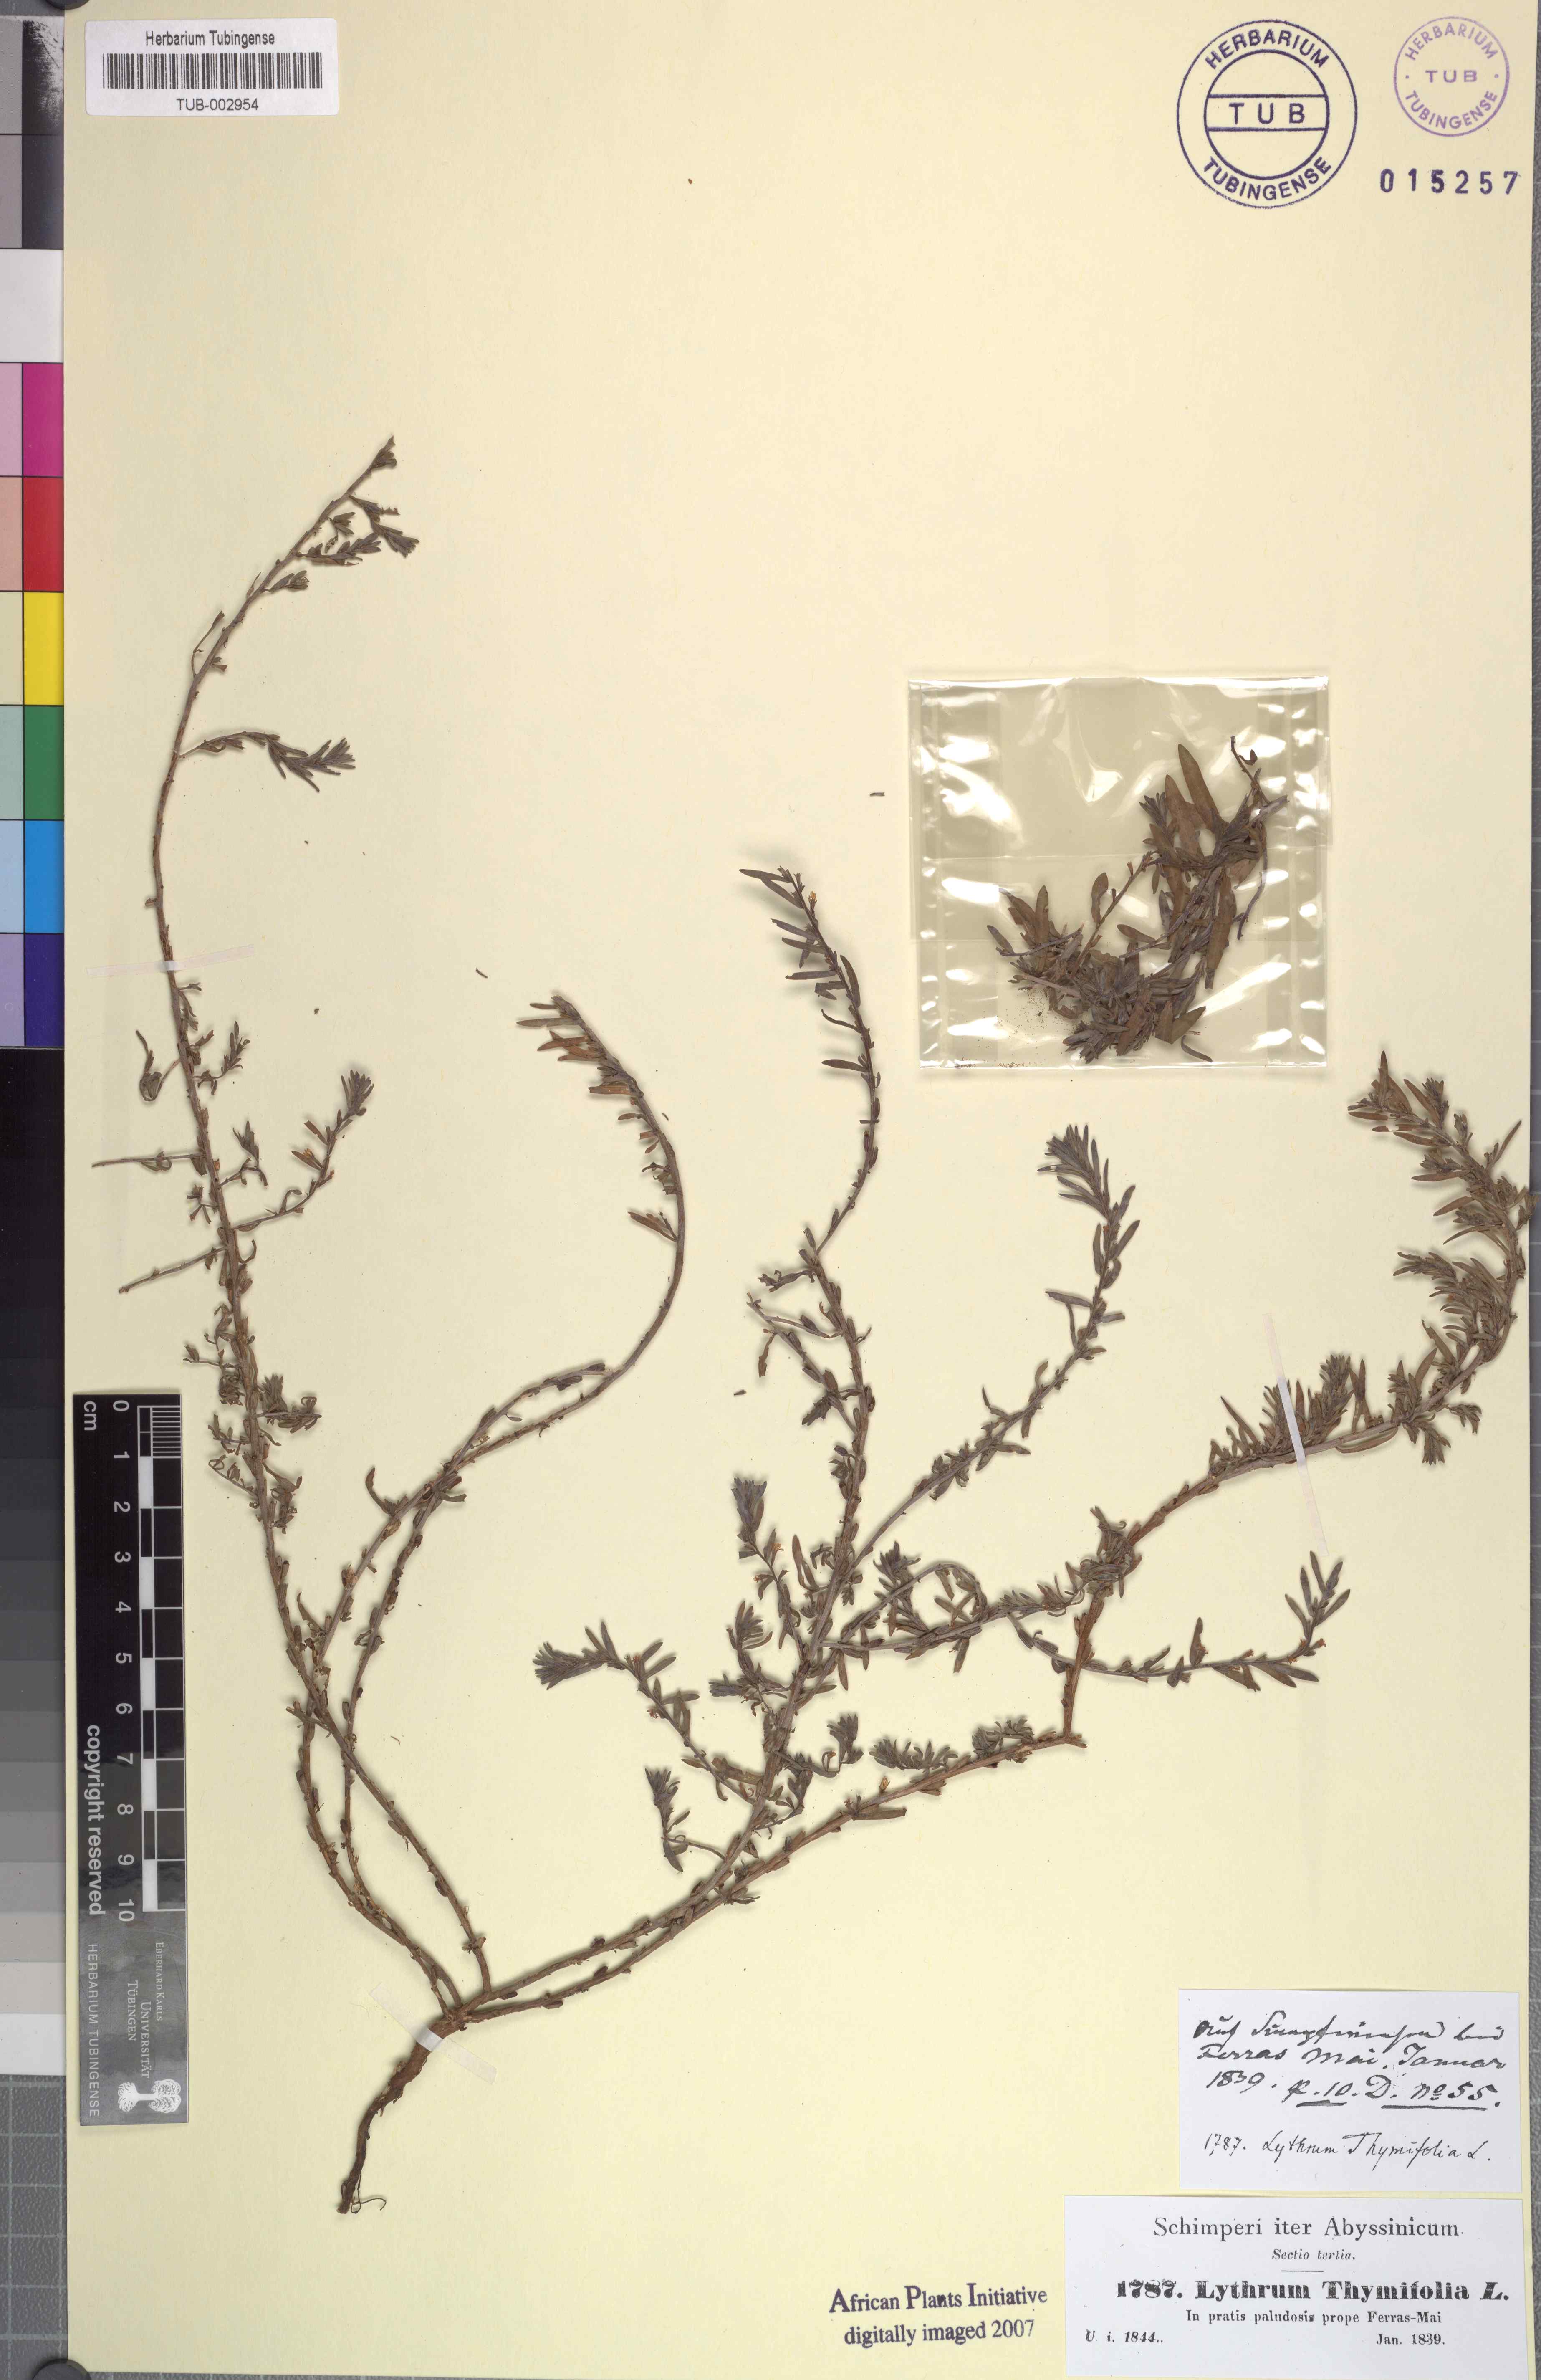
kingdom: Plantae
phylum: Tracheophyta
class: Magnoliopsida
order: Myrtales
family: Lythraceae
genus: Lythrum
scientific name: Lythrum thymifolia
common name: Thymeleaf loosestrife
